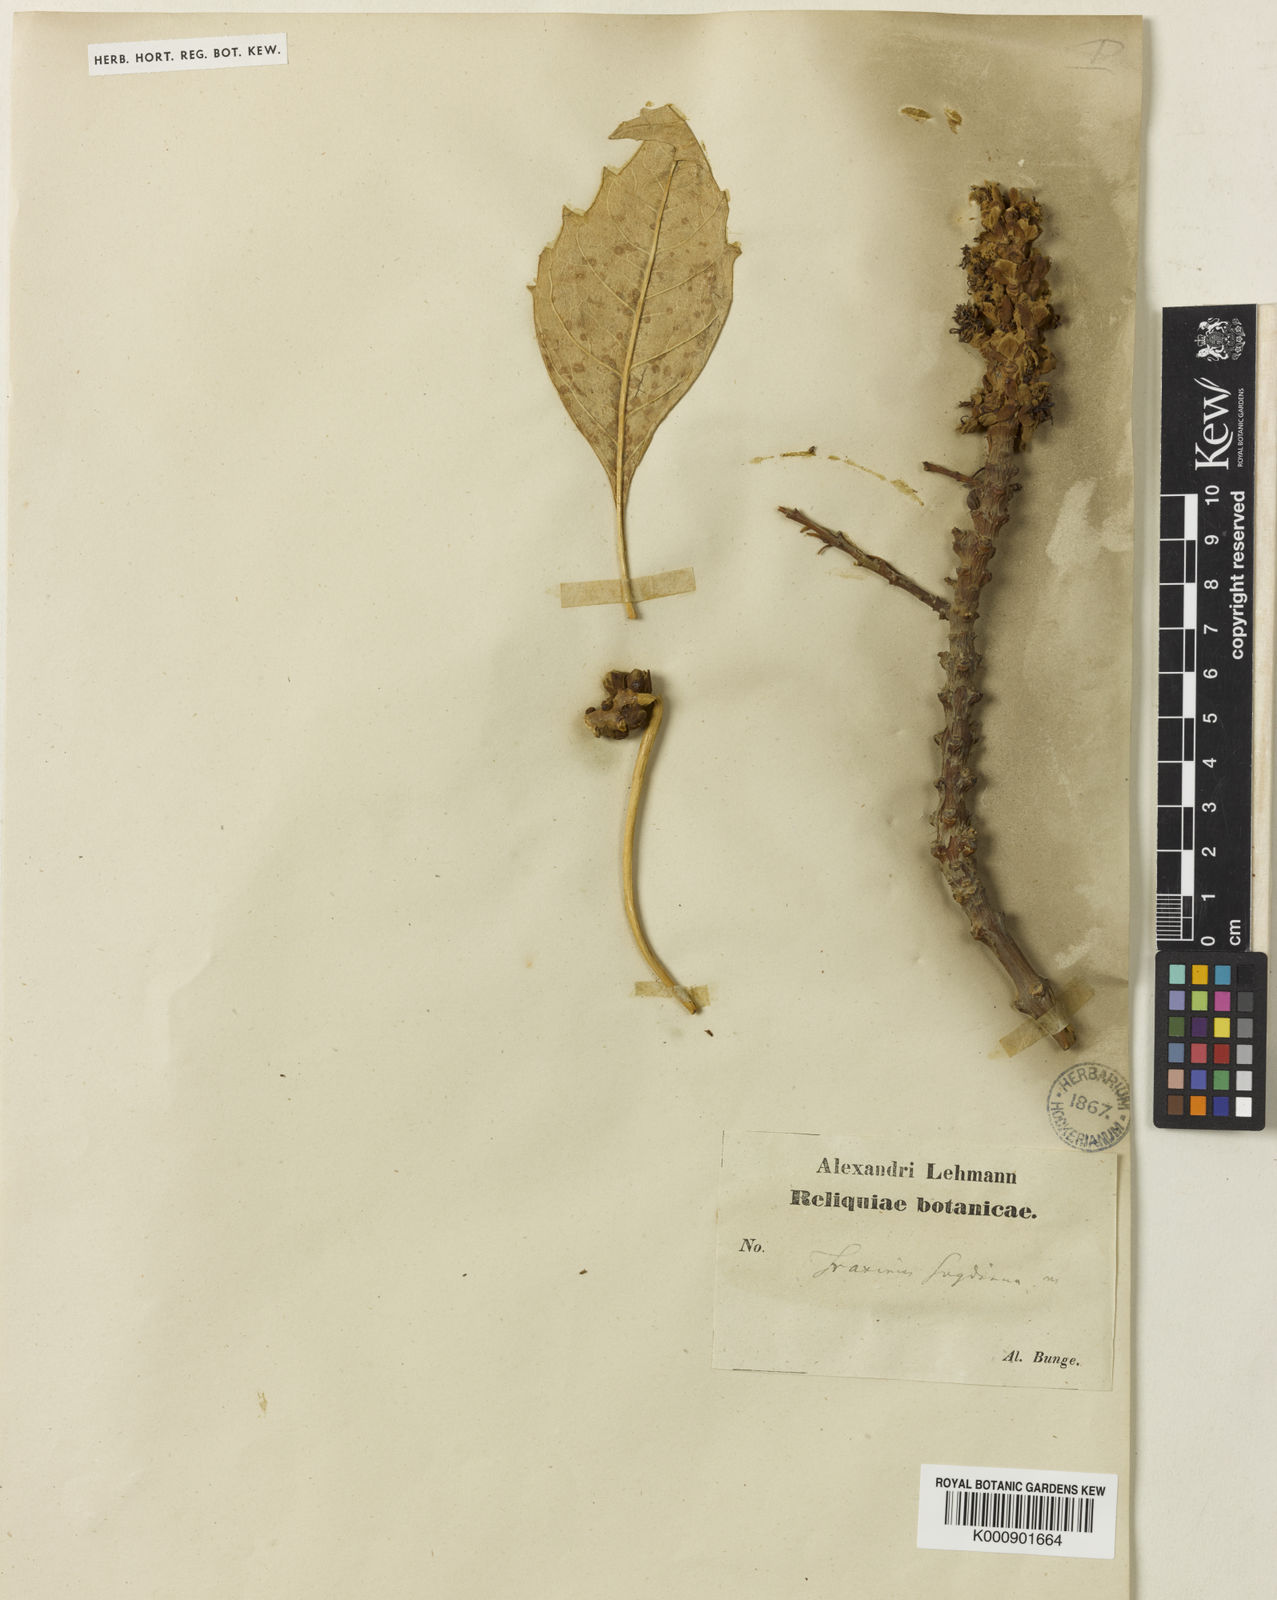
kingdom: Plantae
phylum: Tracheophyta
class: Magnoliopsida
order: Lamiales
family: Oleaceae
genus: Fraxinus
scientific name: Fraxinus angustifolia
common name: Narrow-leafed ash
